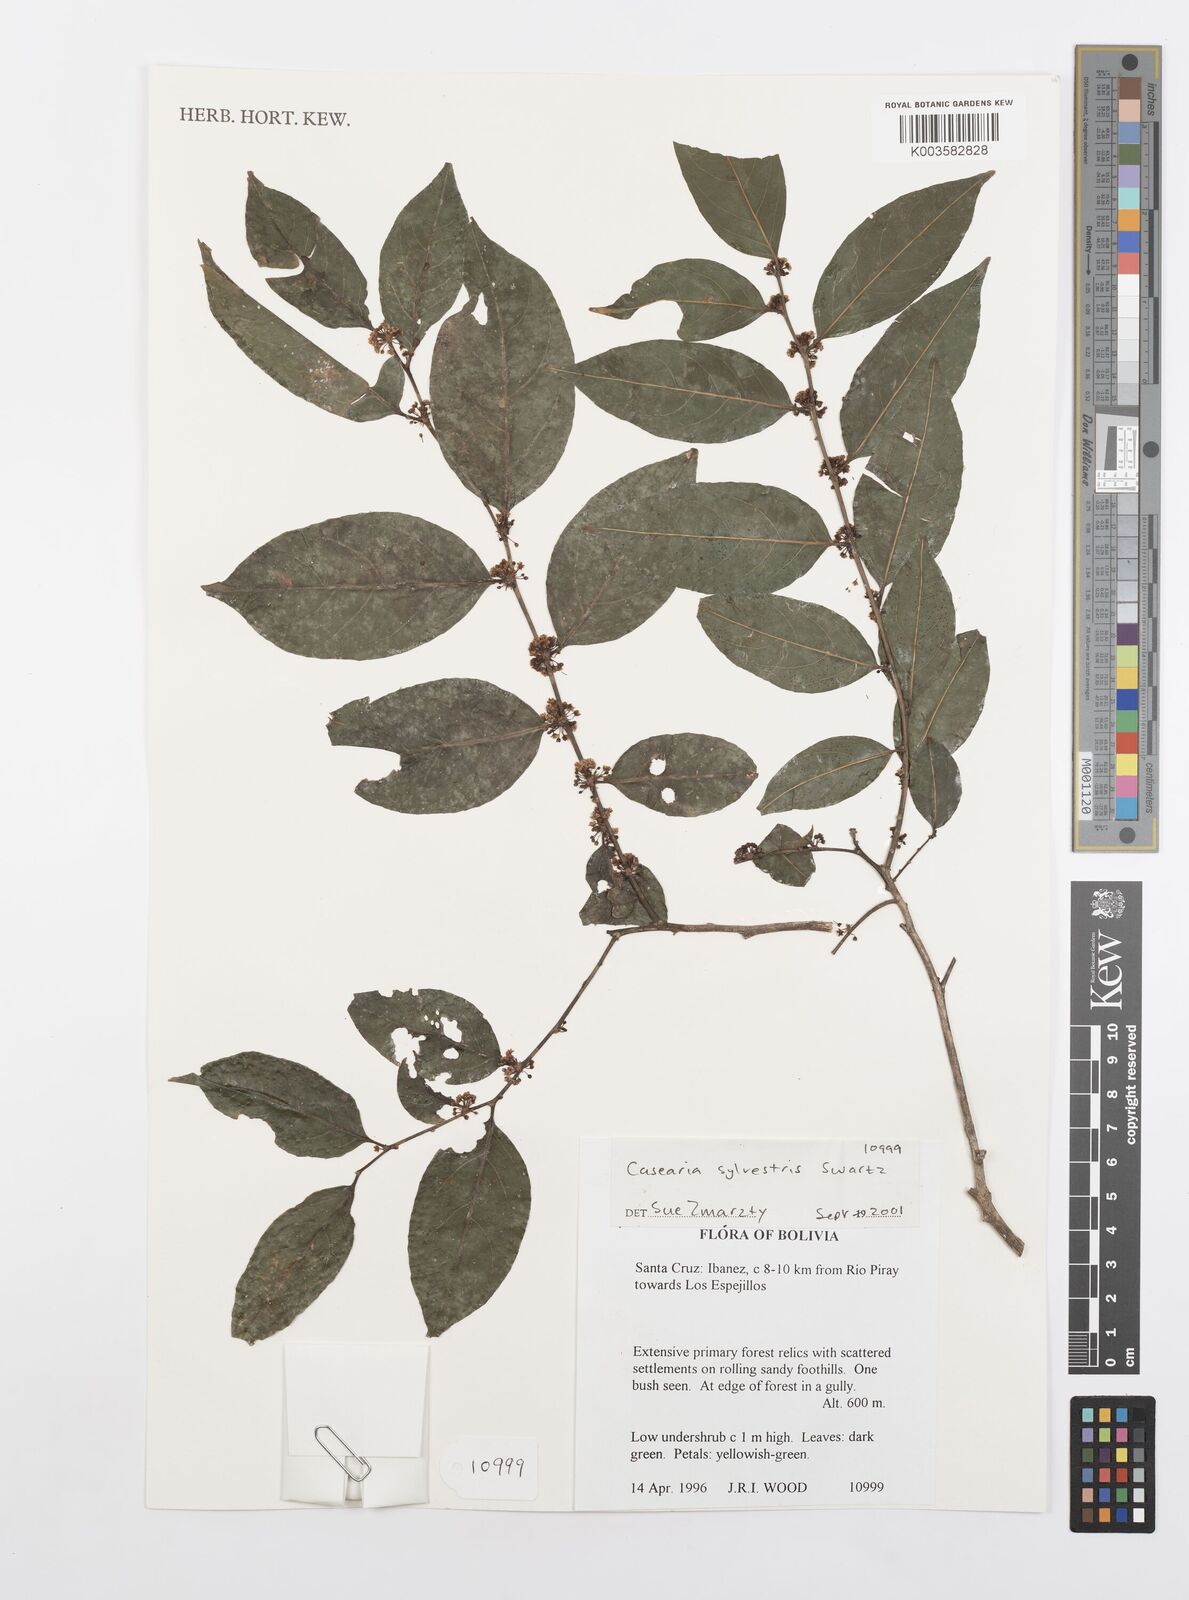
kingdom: Plantae
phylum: Tracheophyta
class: Magnoliopsida
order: Malpighiales
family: Salicaceae
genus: Casearia
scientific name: Casearia sylvestris
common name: Wild sage
